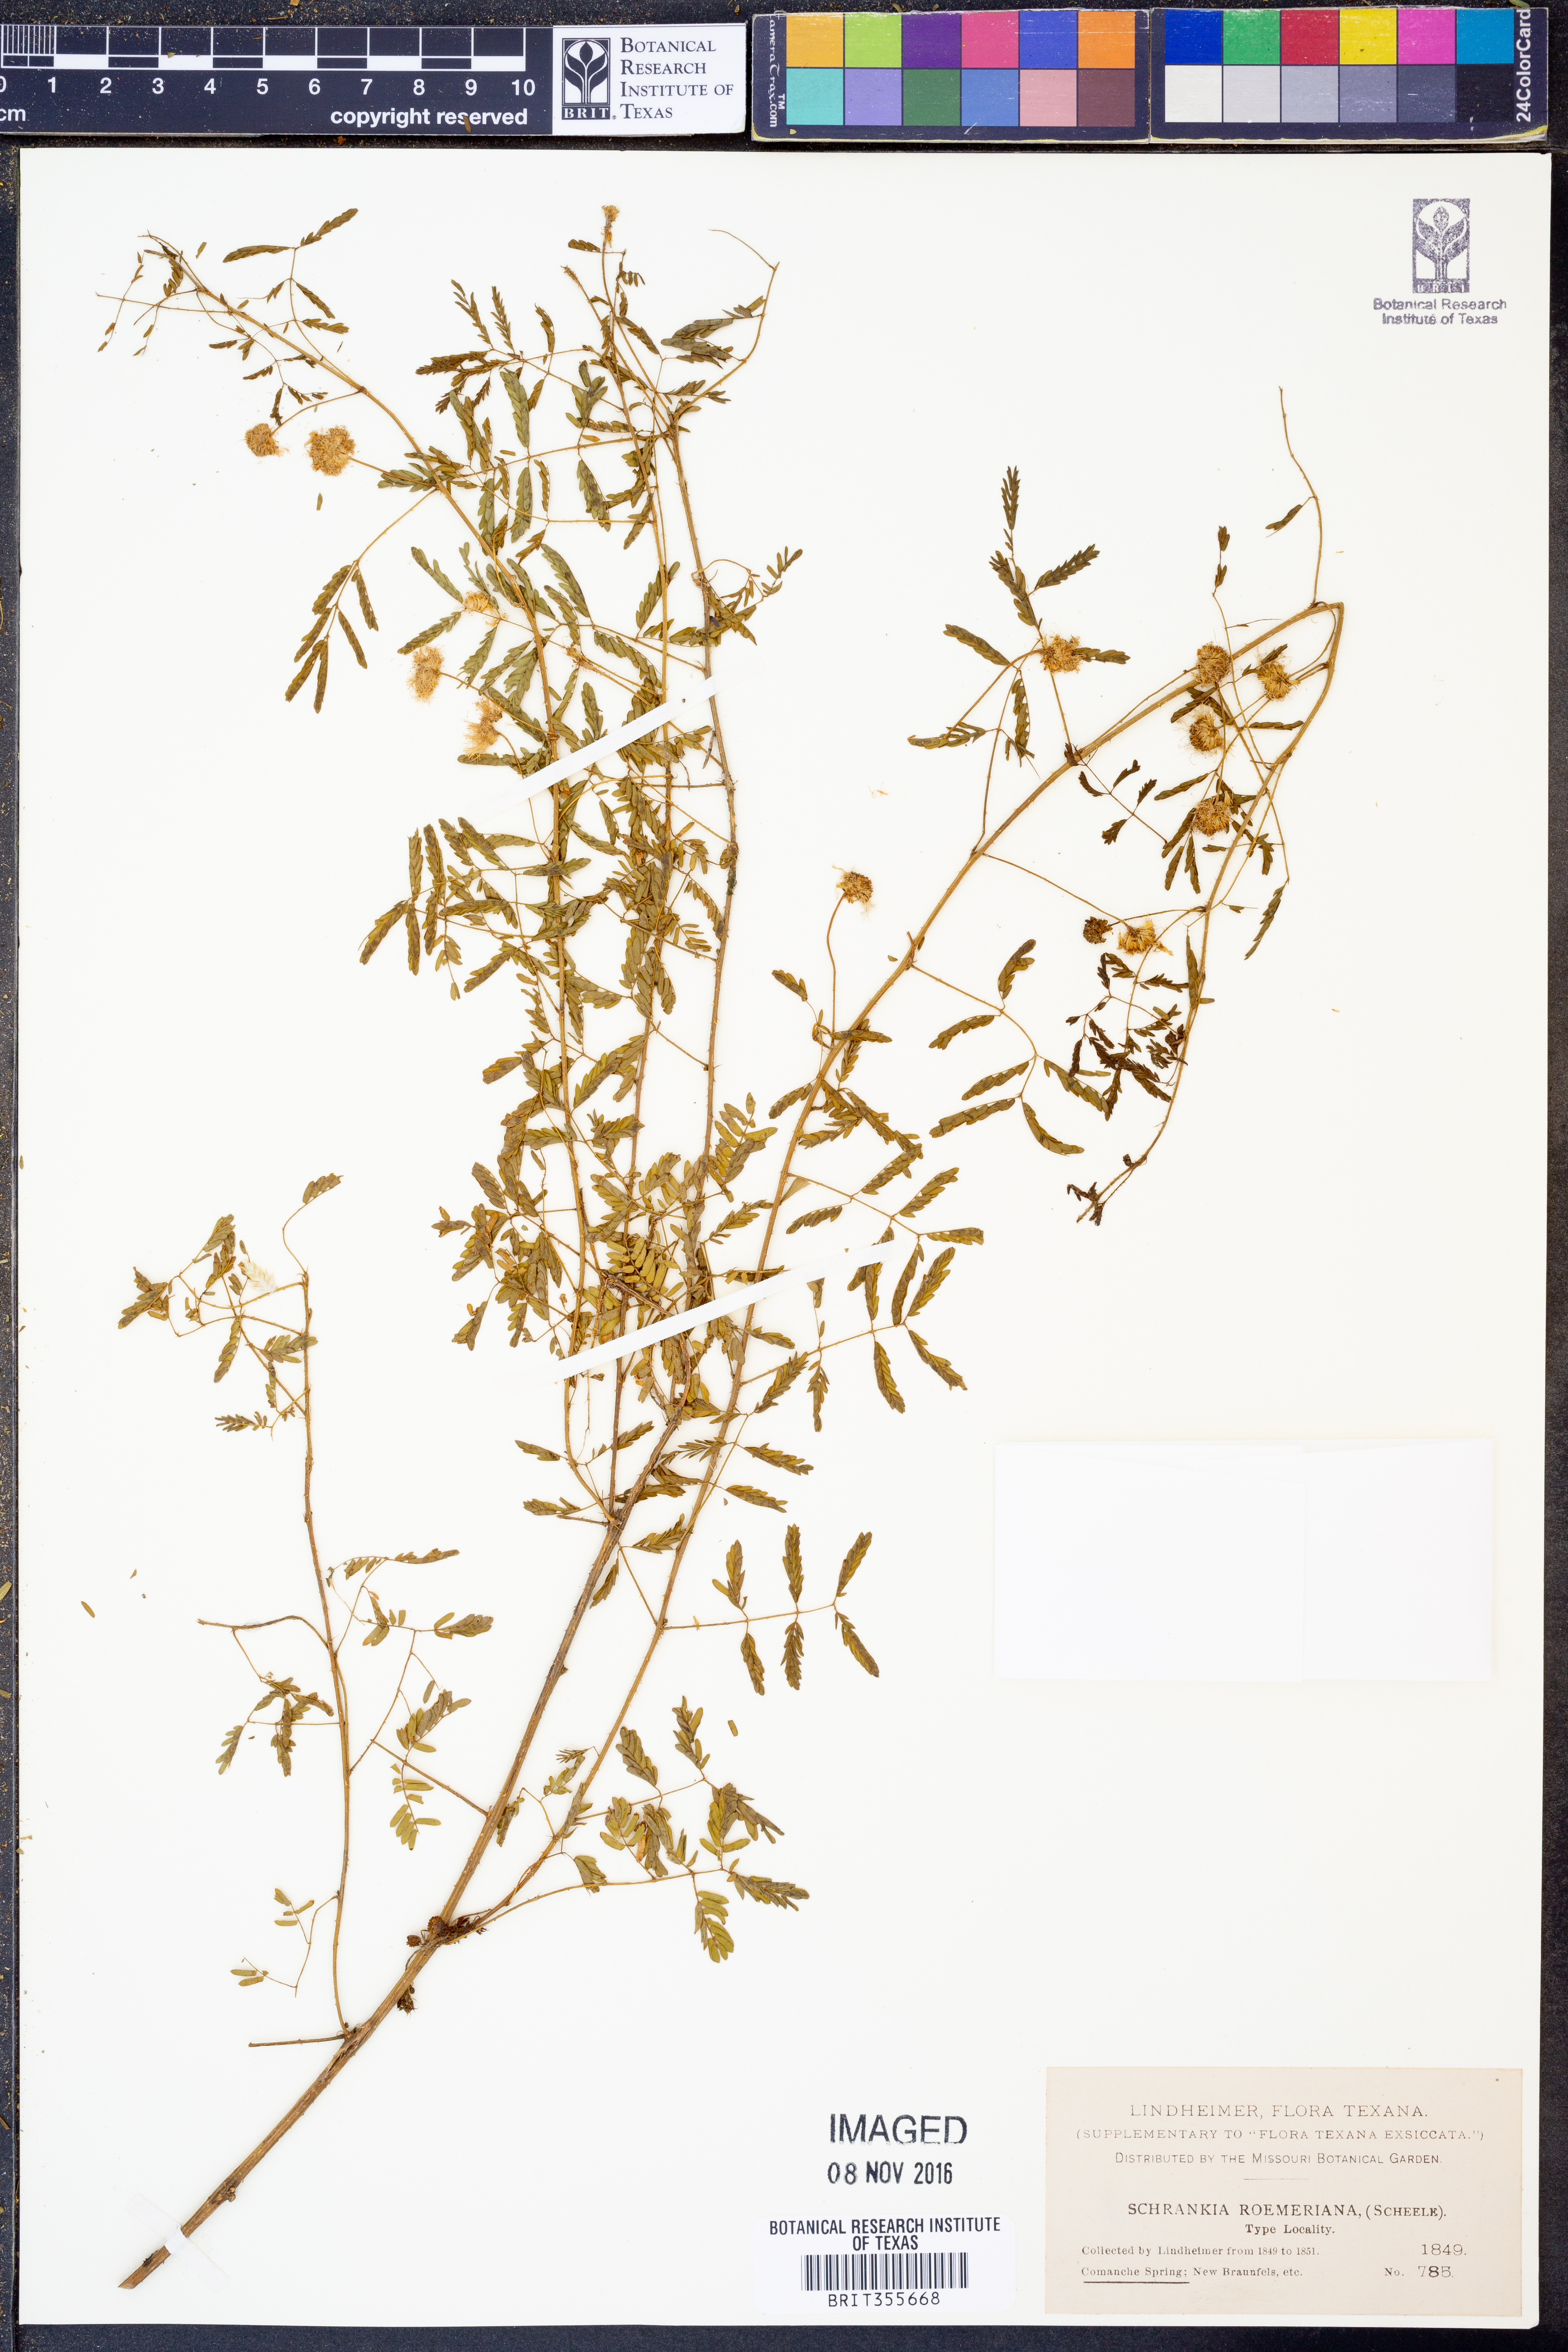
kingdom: Plantae
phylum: Tracheophyta
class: Magnoliopsida
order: Fabales
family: Fabaceae
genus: Mimosa
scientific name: Mimosa quadrivalvis
